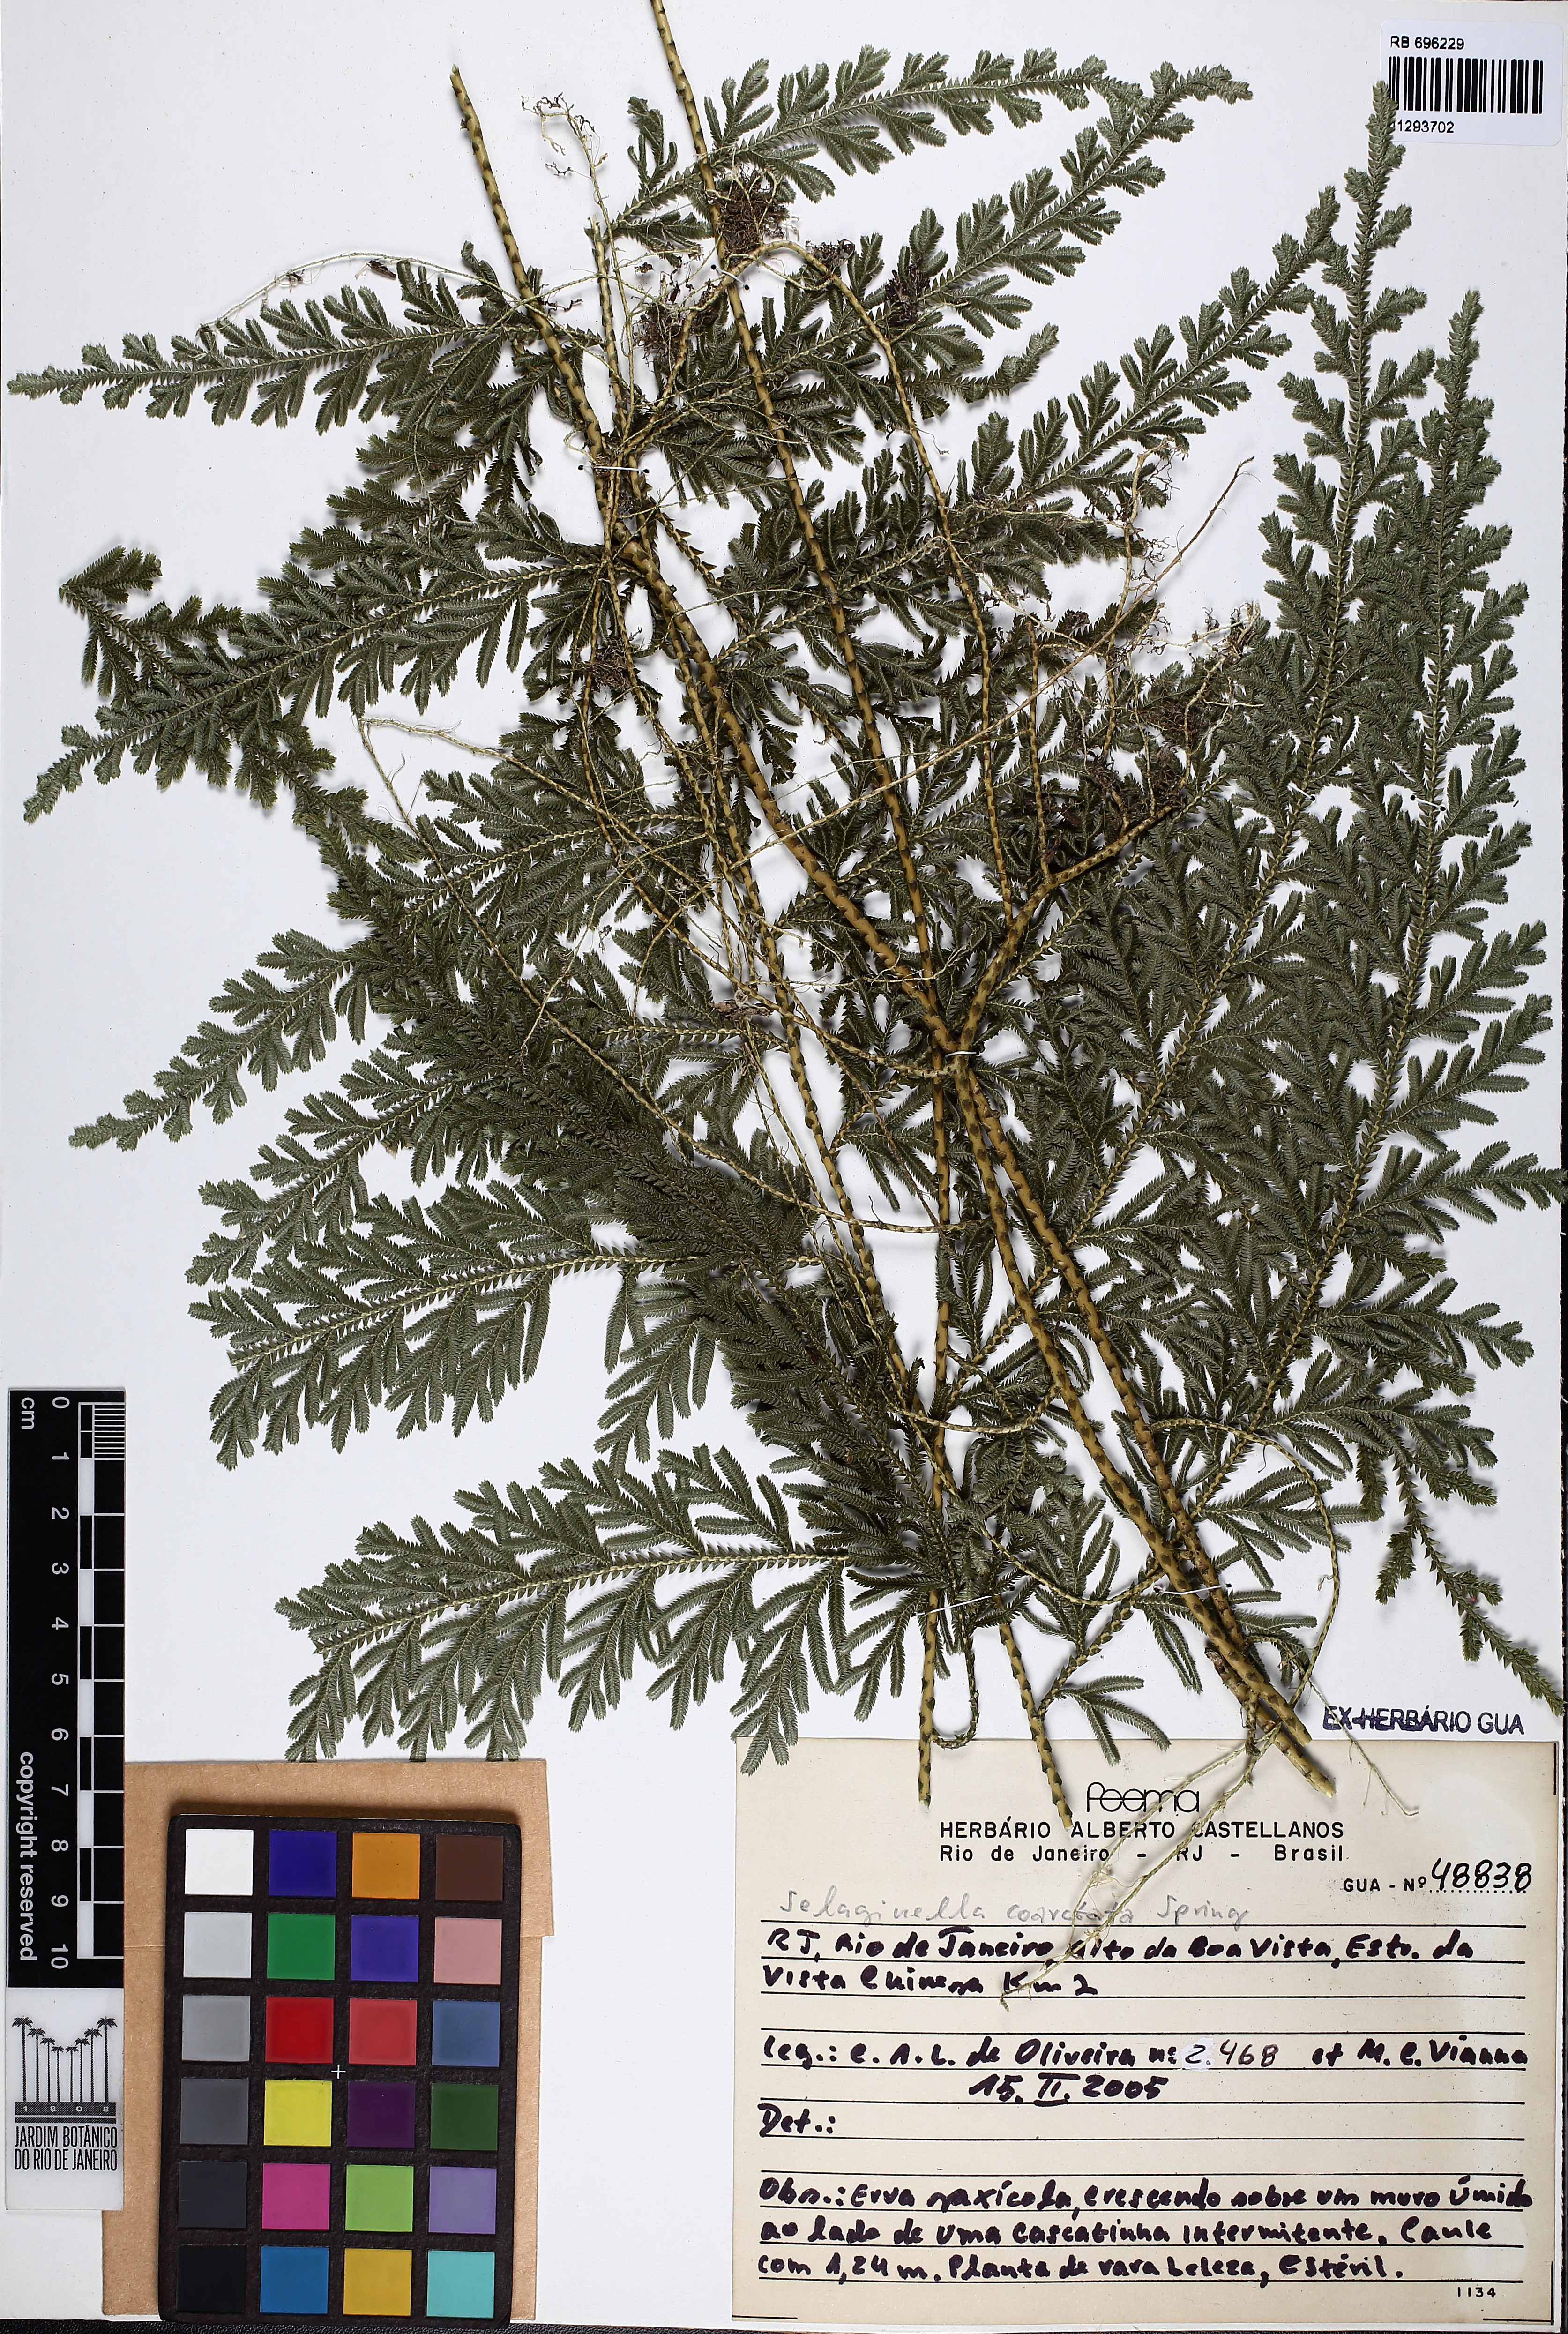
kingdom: Plantae
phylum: Tracheophyta
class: Lycopodiopsida
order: Selaginellales
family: Selaginellaceae
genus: Selaginella
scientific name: Selaginella coarctata
